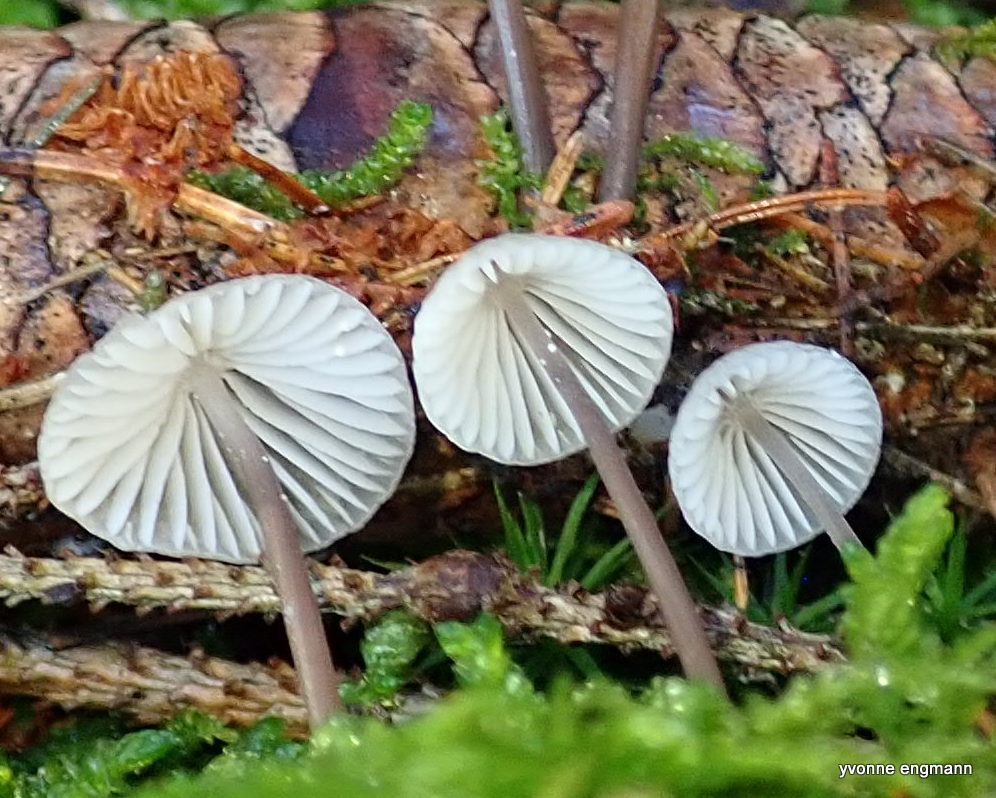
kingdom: Fungi
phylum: Basidiomycota
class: Agaricomycetes
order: Agaricales
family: Mycenaceae
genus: Mycena
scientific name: Mycena galopus
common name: hvidmælket huesvamp
